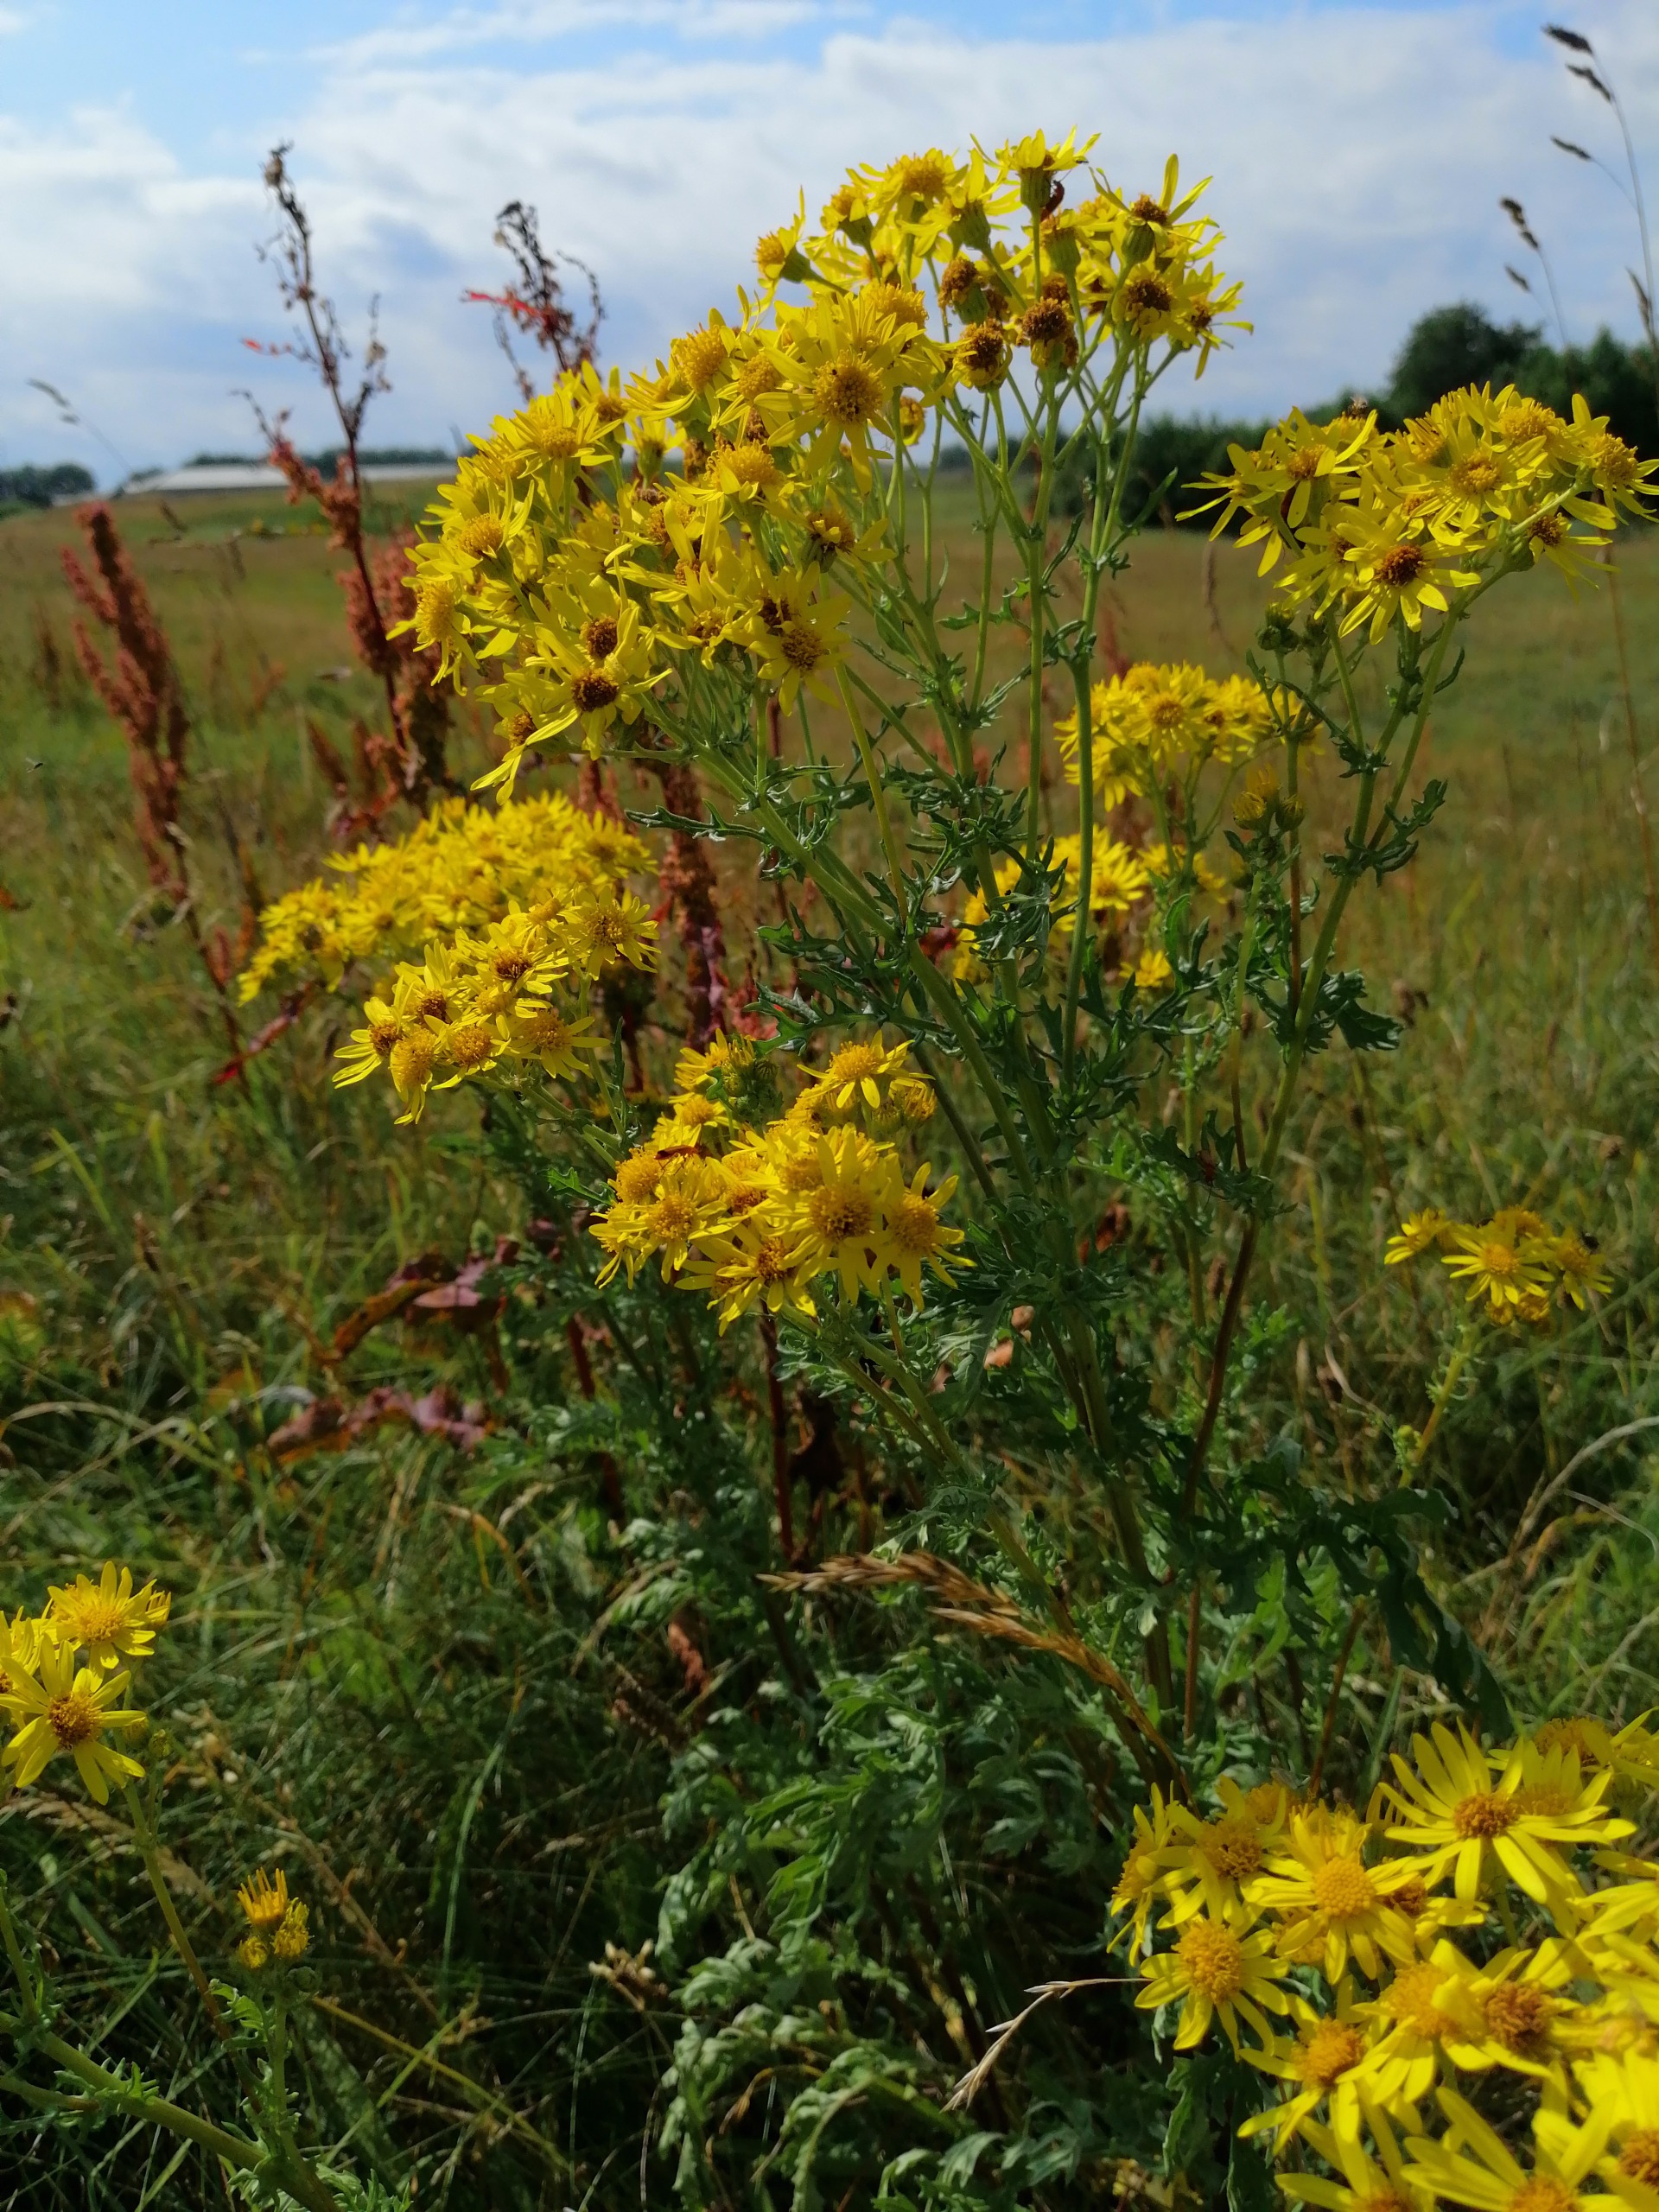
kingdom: Plantae
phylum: Tracheophyta
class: Magnoliopsida
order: Asterales
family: Asteraceae
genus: Jacobaea
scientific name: Jacobaea vulgaris
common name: Eng-brandbæger
